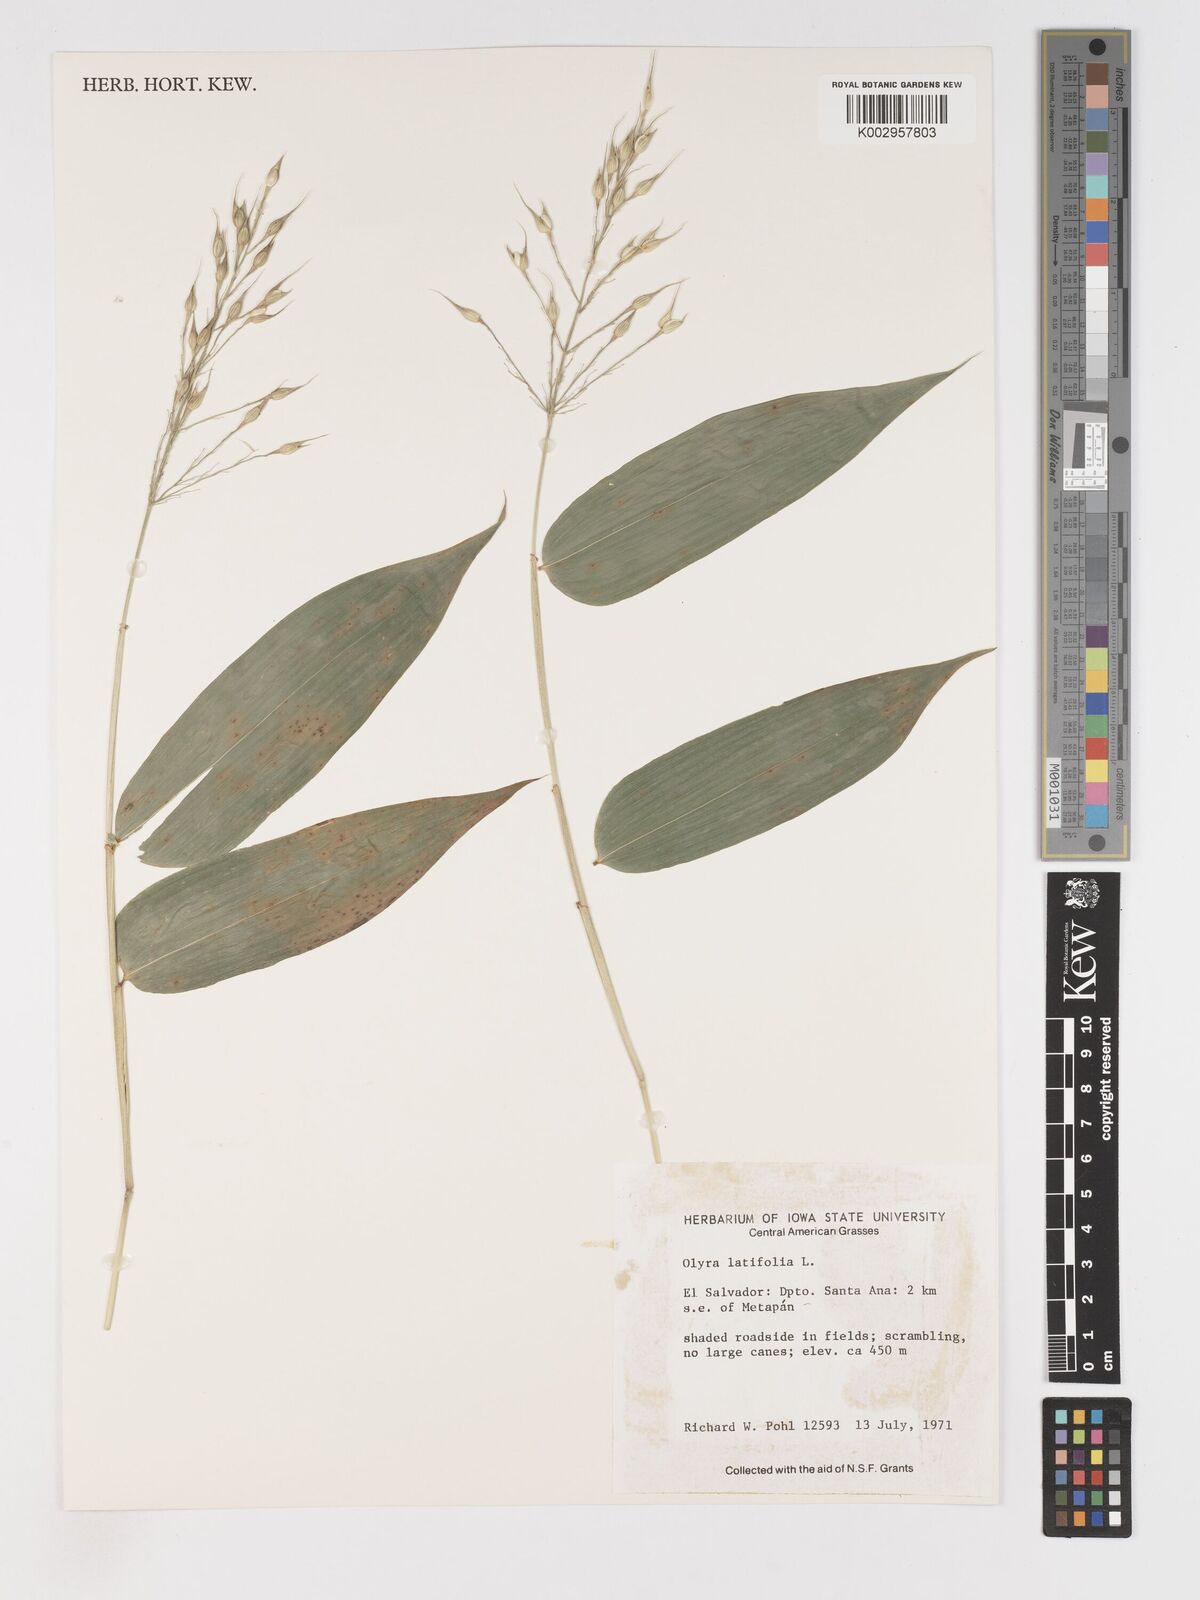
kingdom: Plantae
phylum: Tracheophyta
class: Liliopsida
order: Poales
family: Poaceae
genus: Olyra
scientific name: Olyra latifolia
